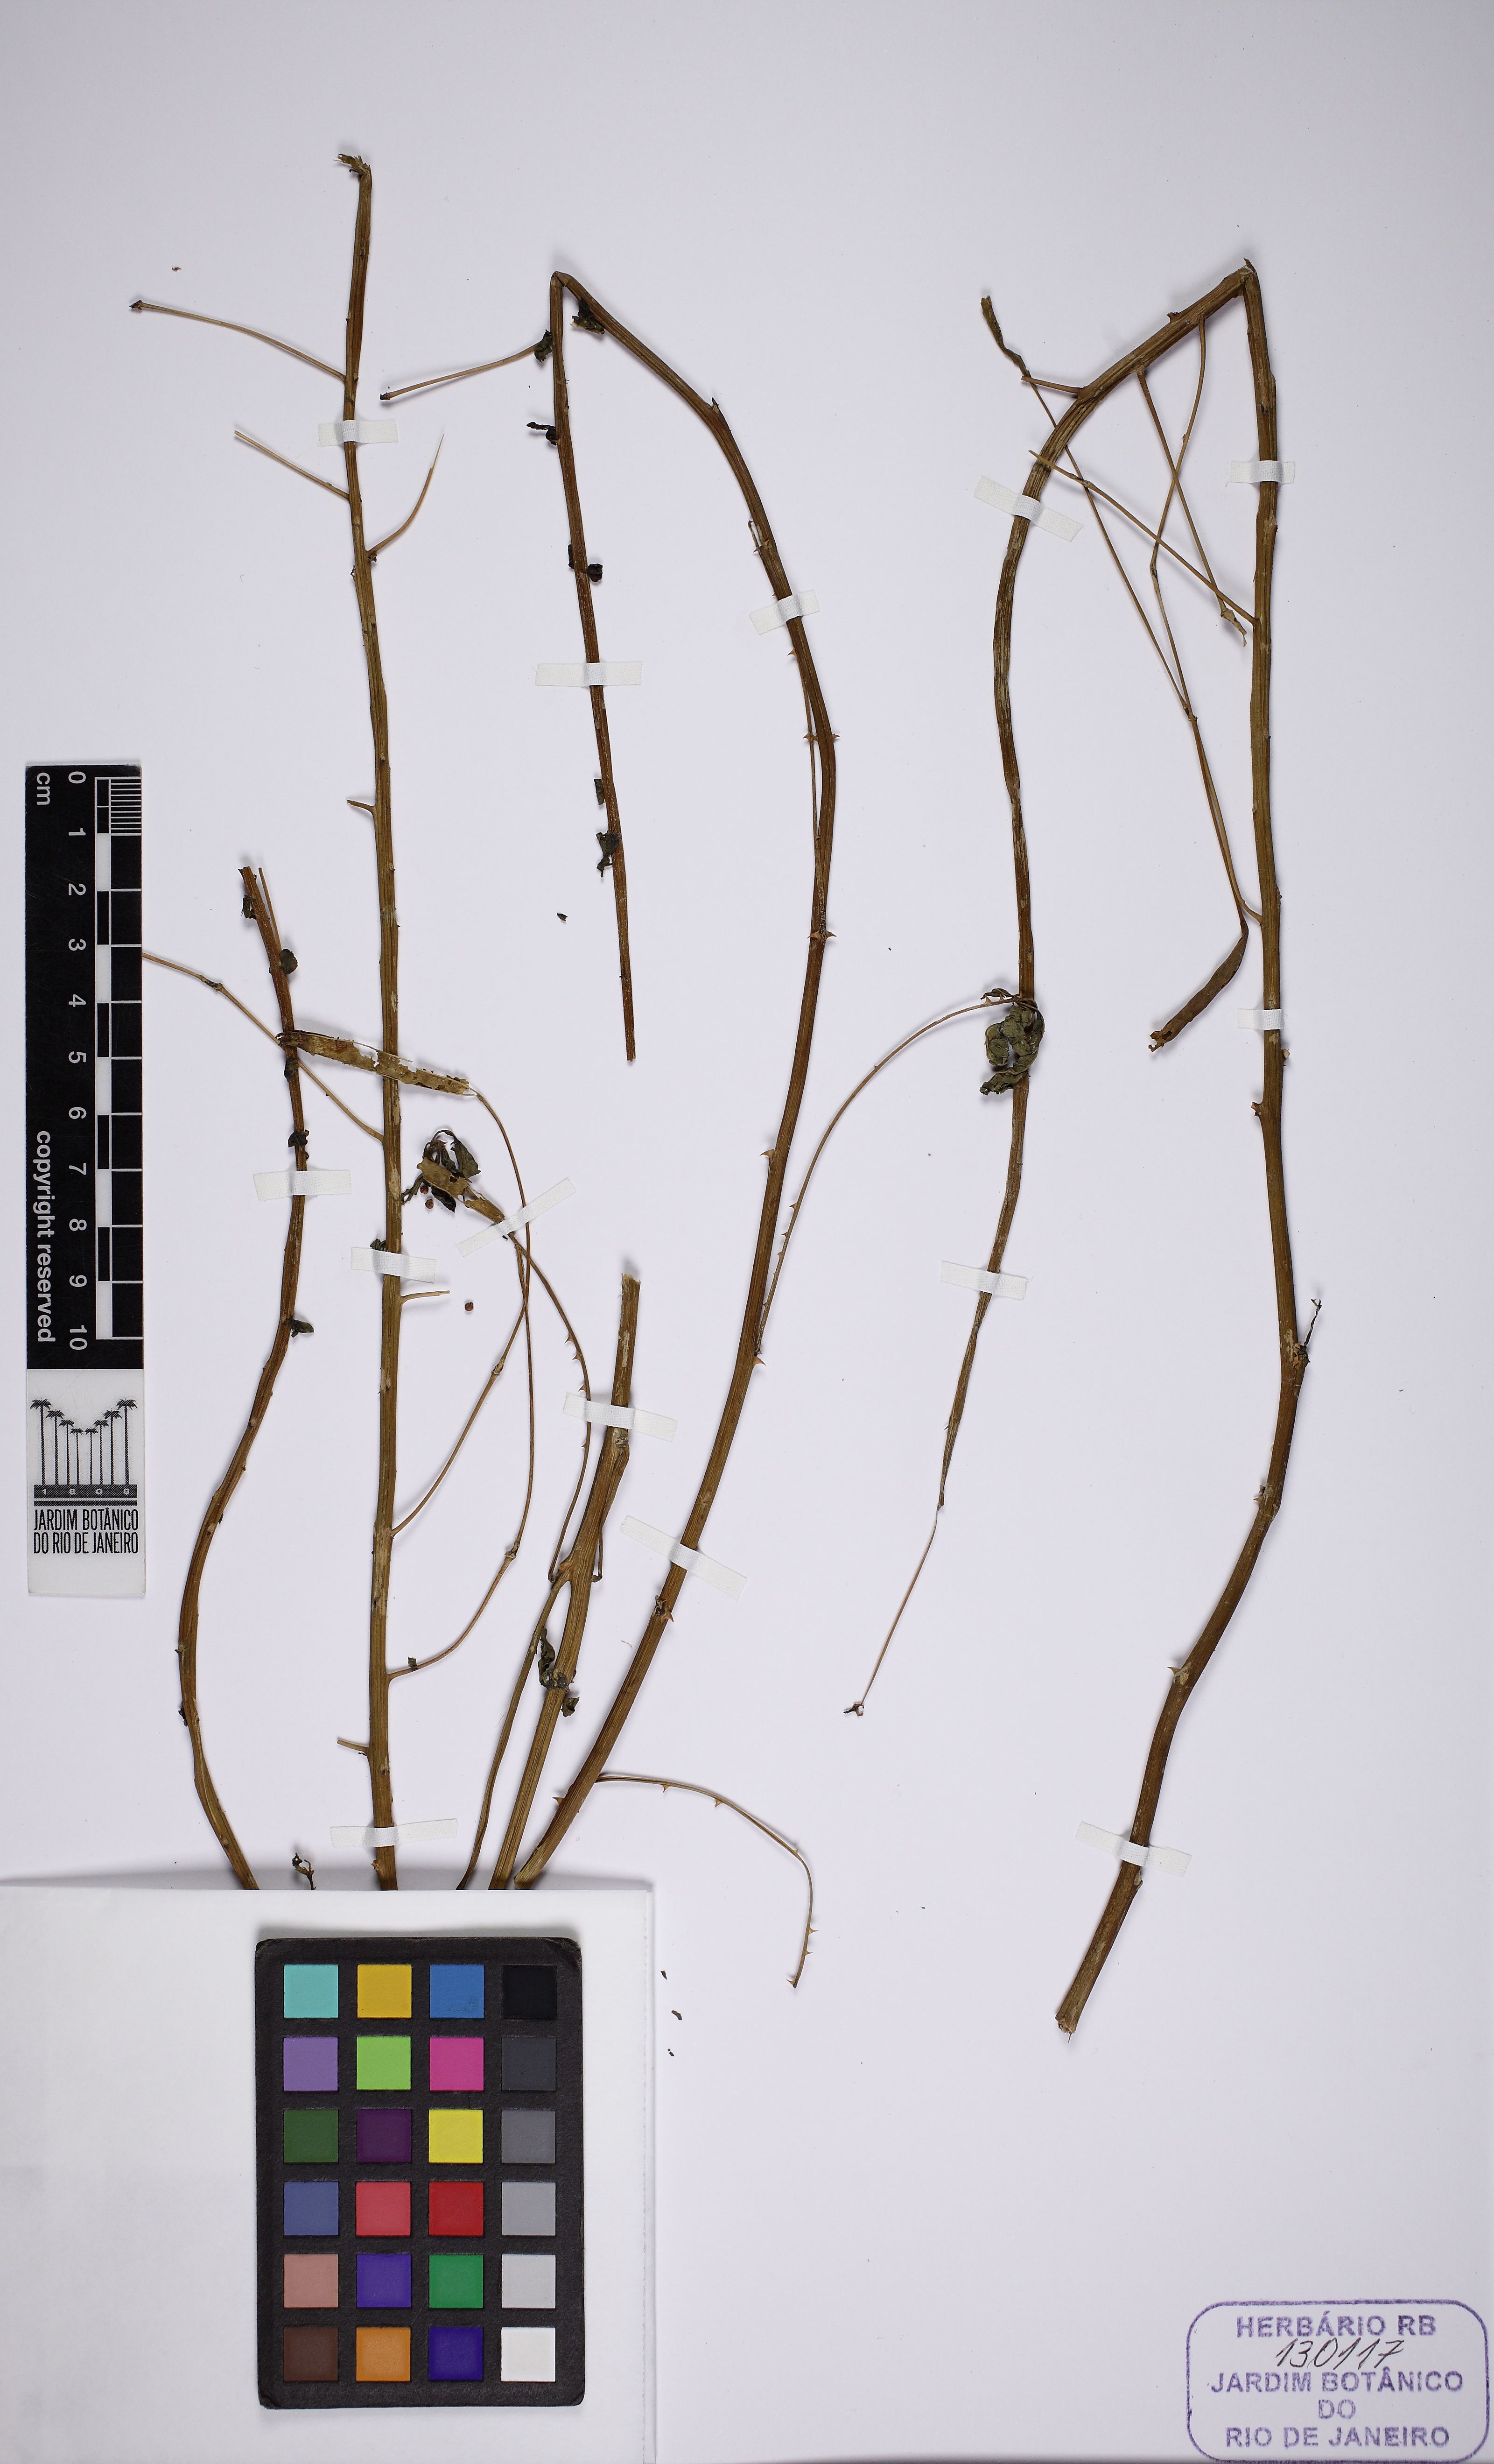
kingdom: Plantae
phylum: Tracheophyta
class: Magnoliopsida
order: Brassicales
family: Cleomaceae
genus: Tarenaya
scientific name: Tarenaya horrida
